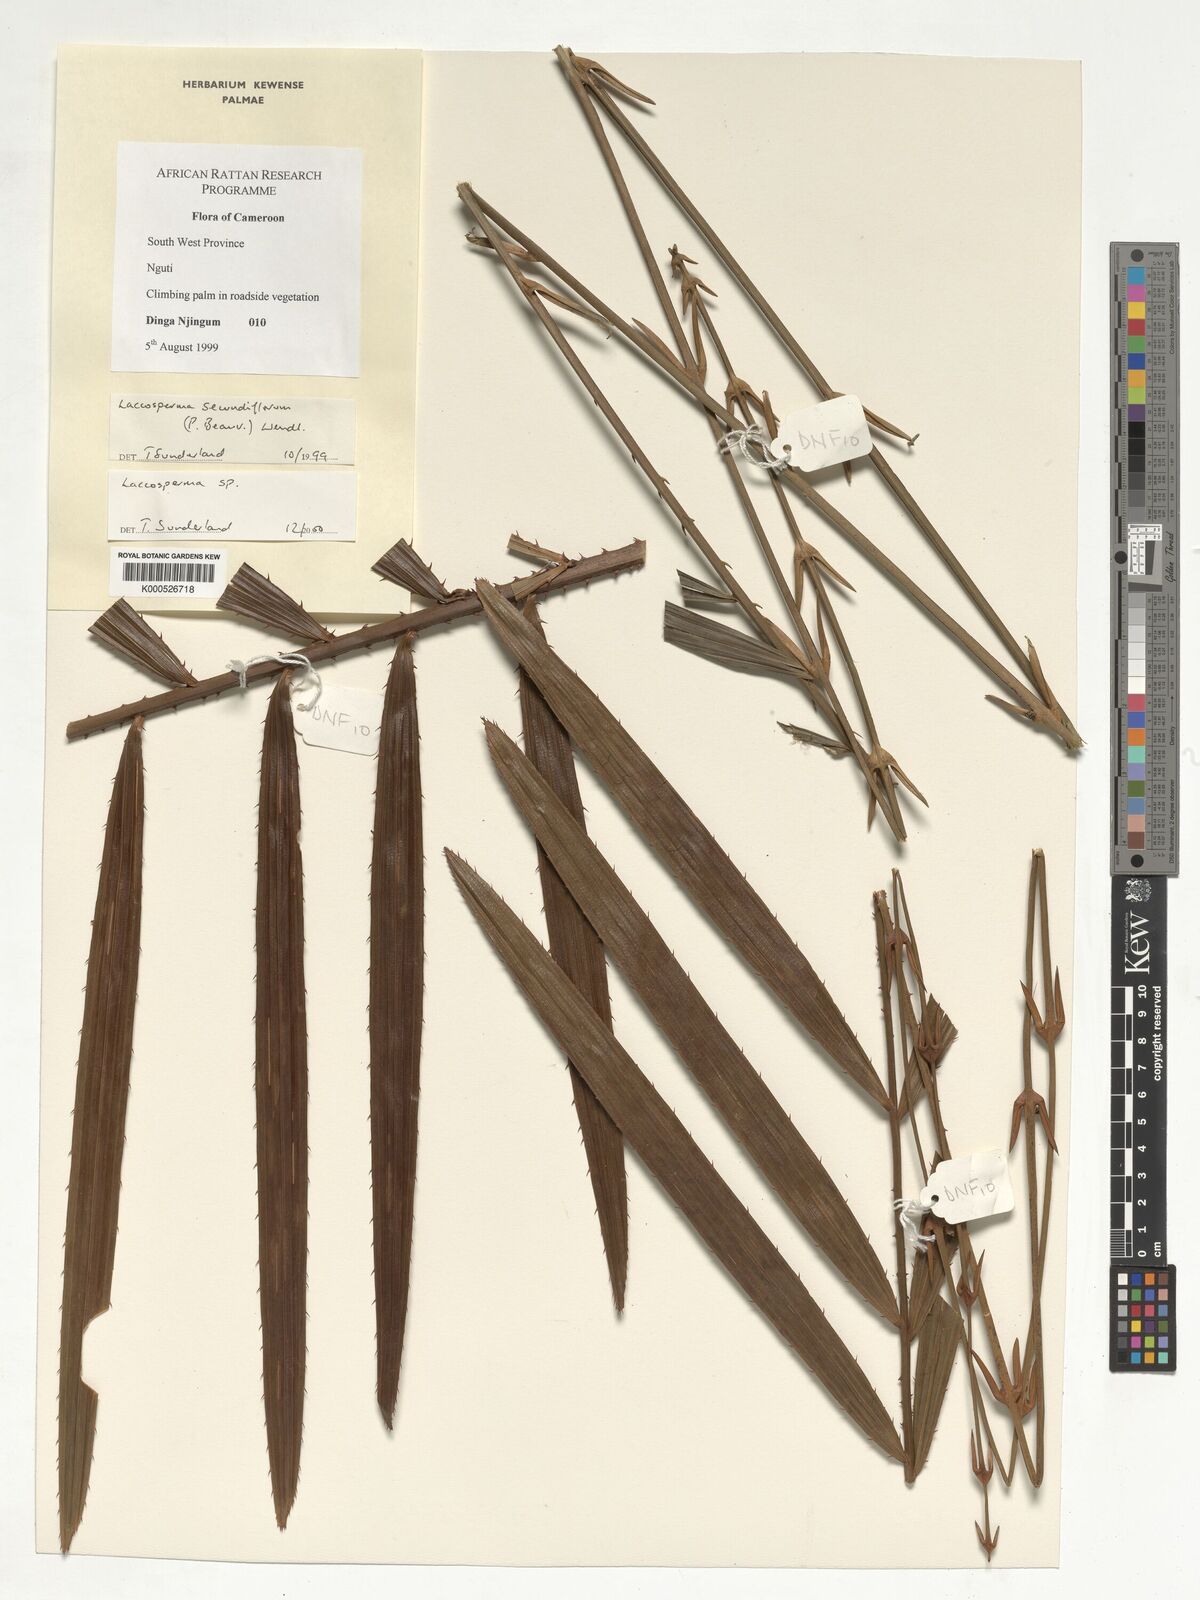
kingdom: Plantae
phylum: Tracheophyta
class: Liliopsida
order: Arecales
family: Arecaceae
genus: Laccosperma
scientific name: Laccosperma
